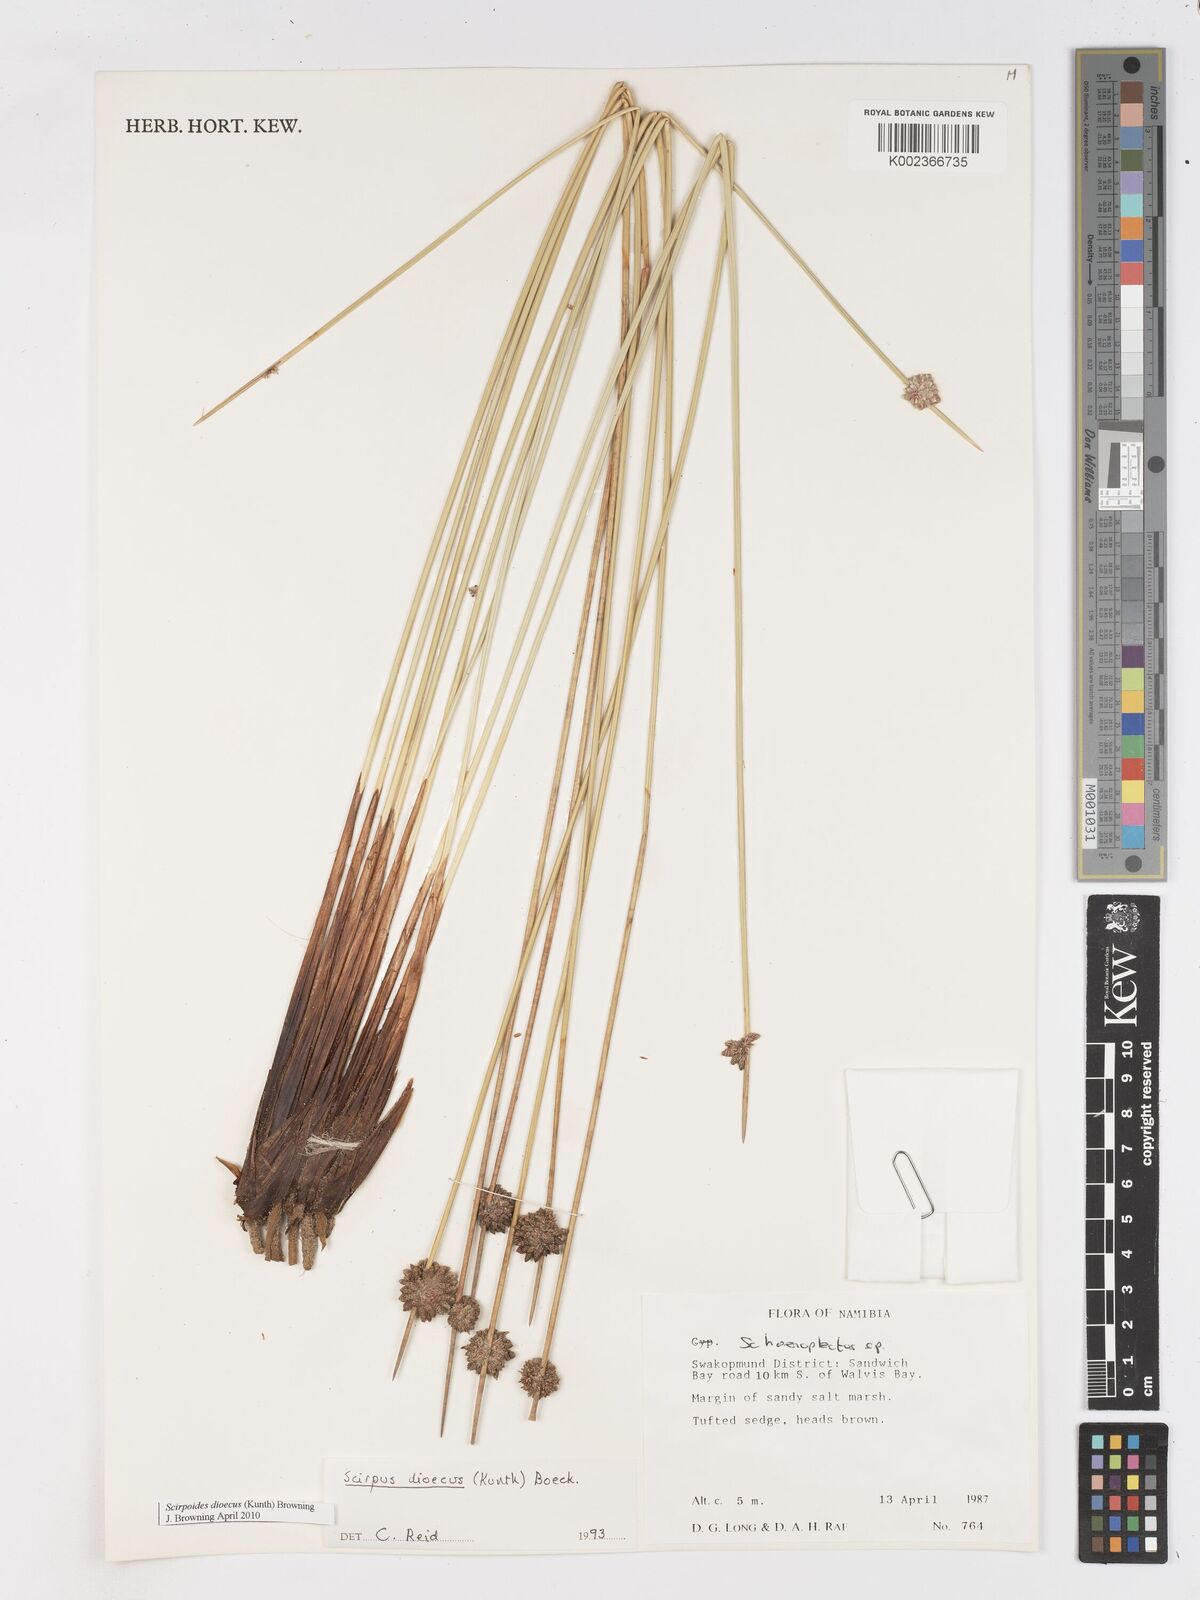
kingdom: Plantae
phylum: Tracheophyta
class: Liliopsida
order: Poales
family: Cyperaceae
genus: Scirpoides
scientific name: Scirpoides
